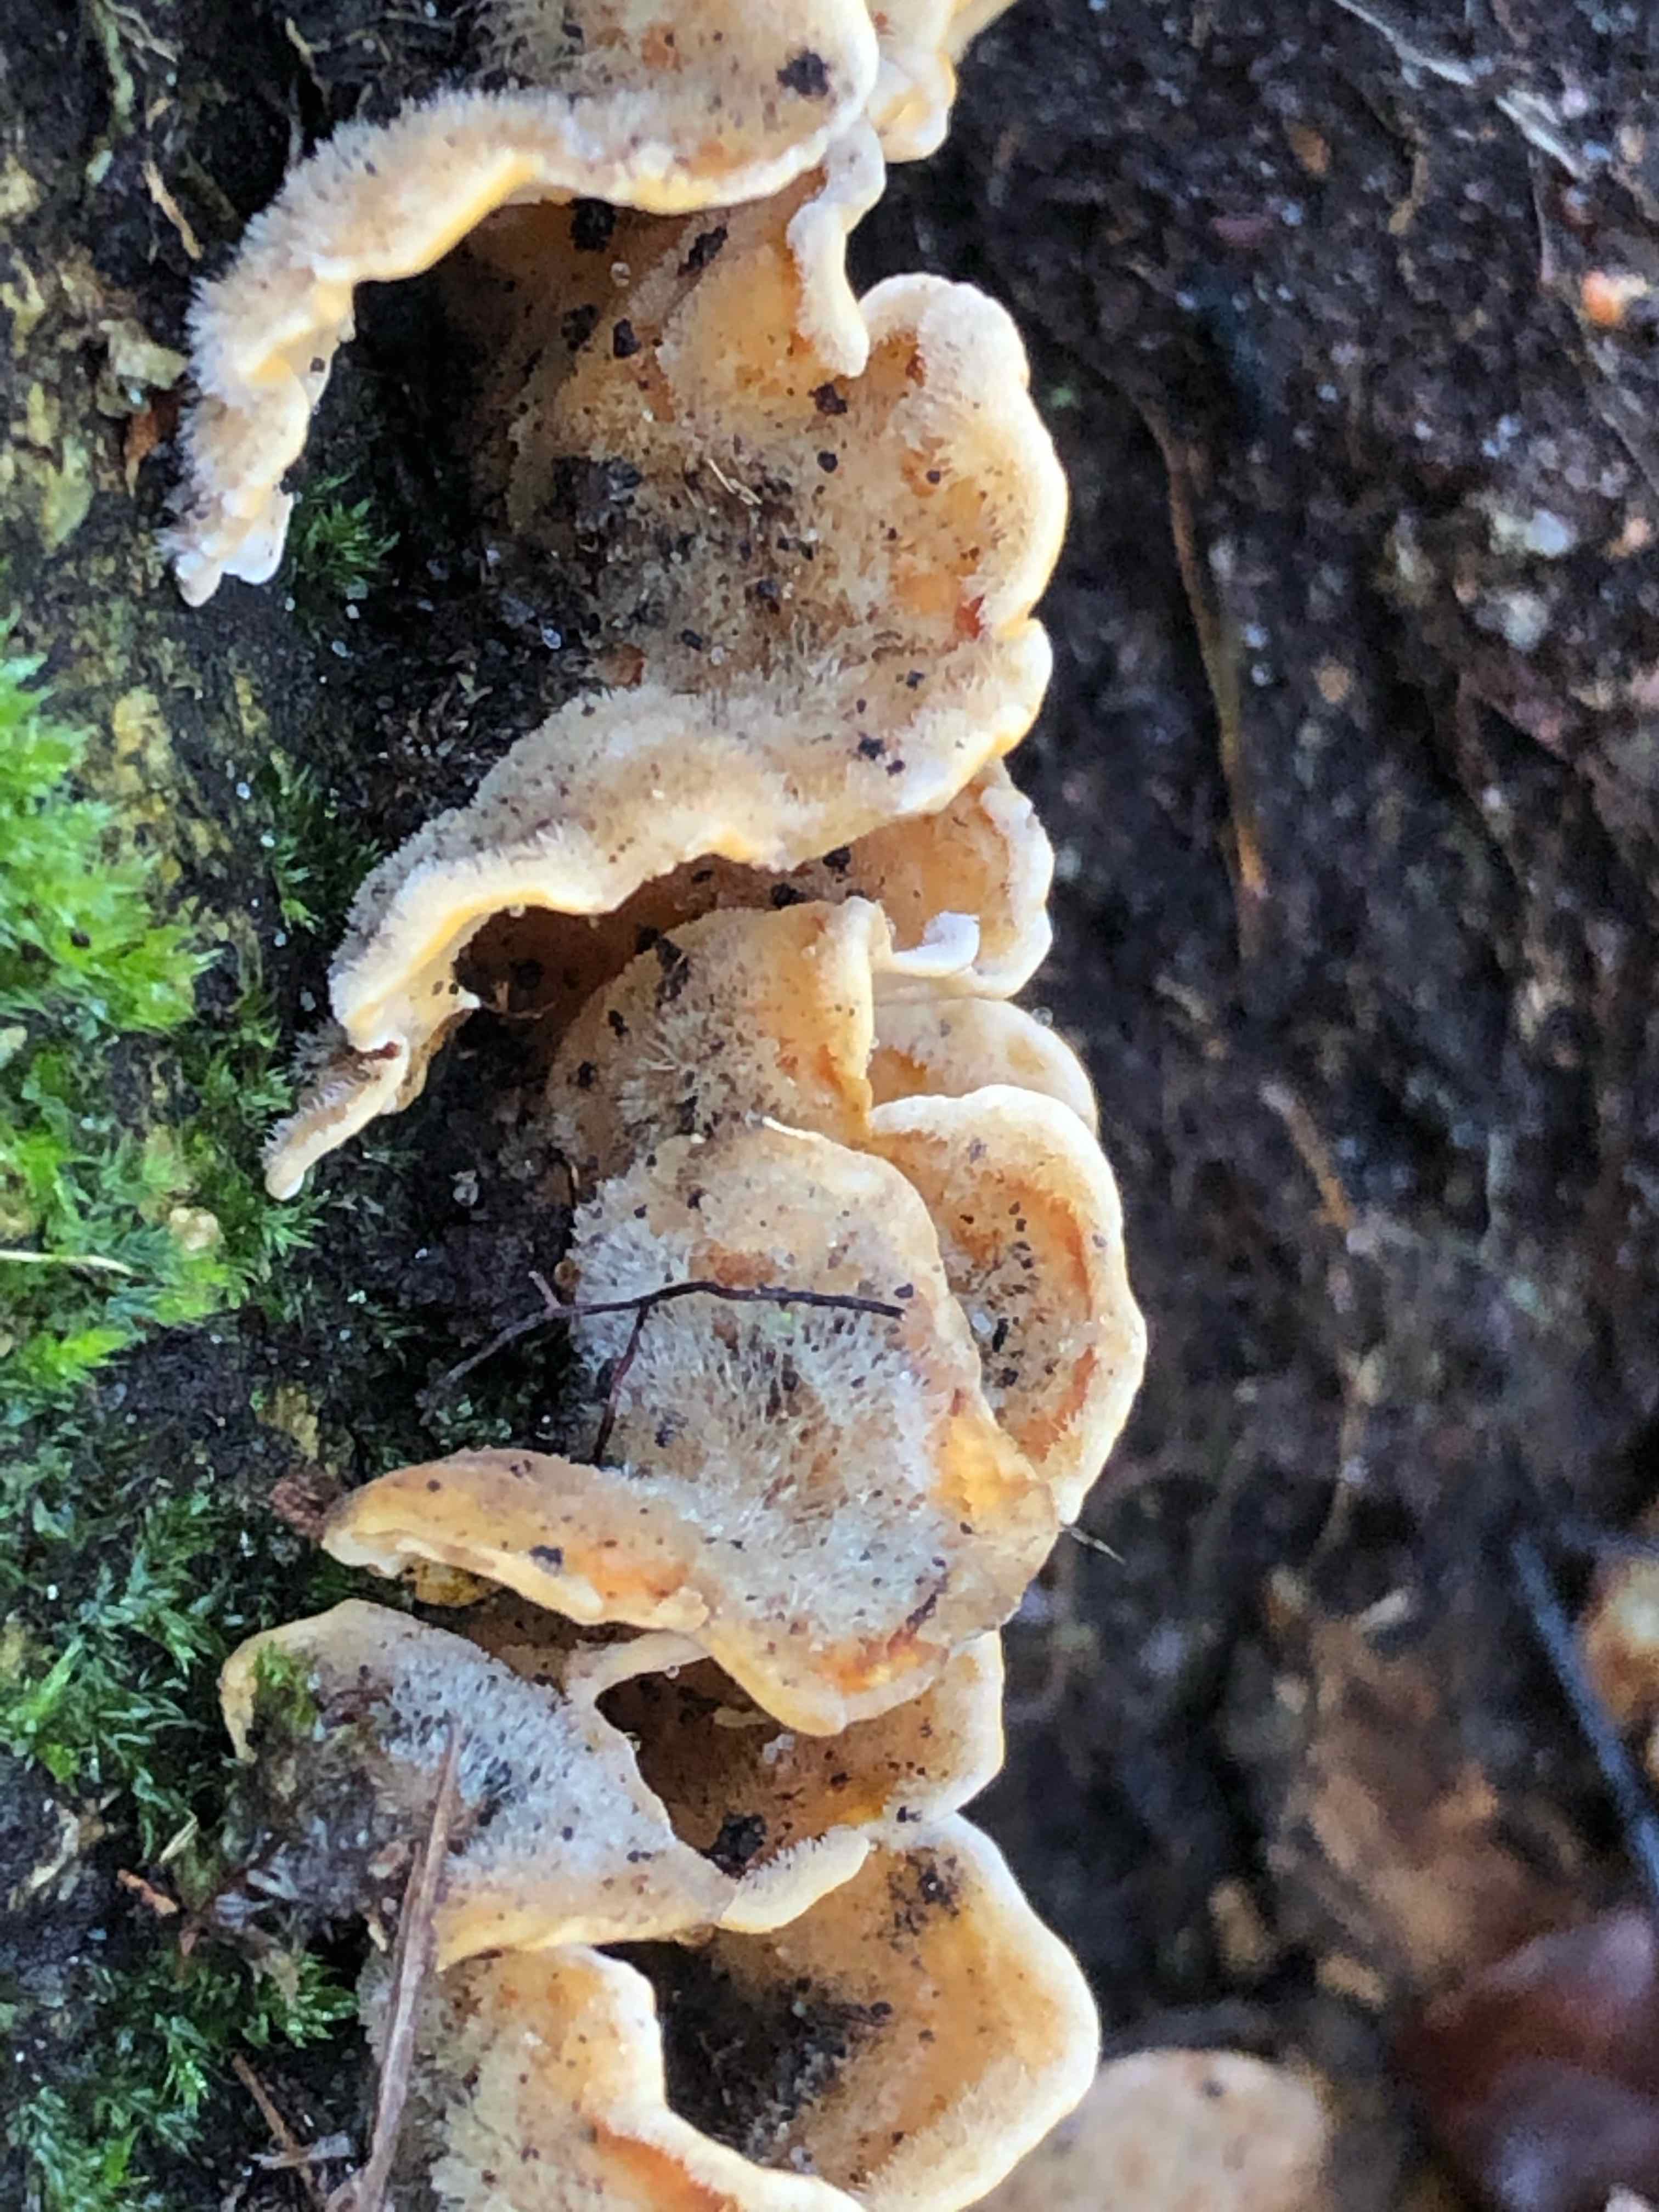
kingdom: Fungi
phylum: Basidiomycota
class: Agaricomycetes
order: Russulales
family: Stereaceae
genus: Stereum
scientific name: Stereum hirsutum
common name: håret lædersvamp
